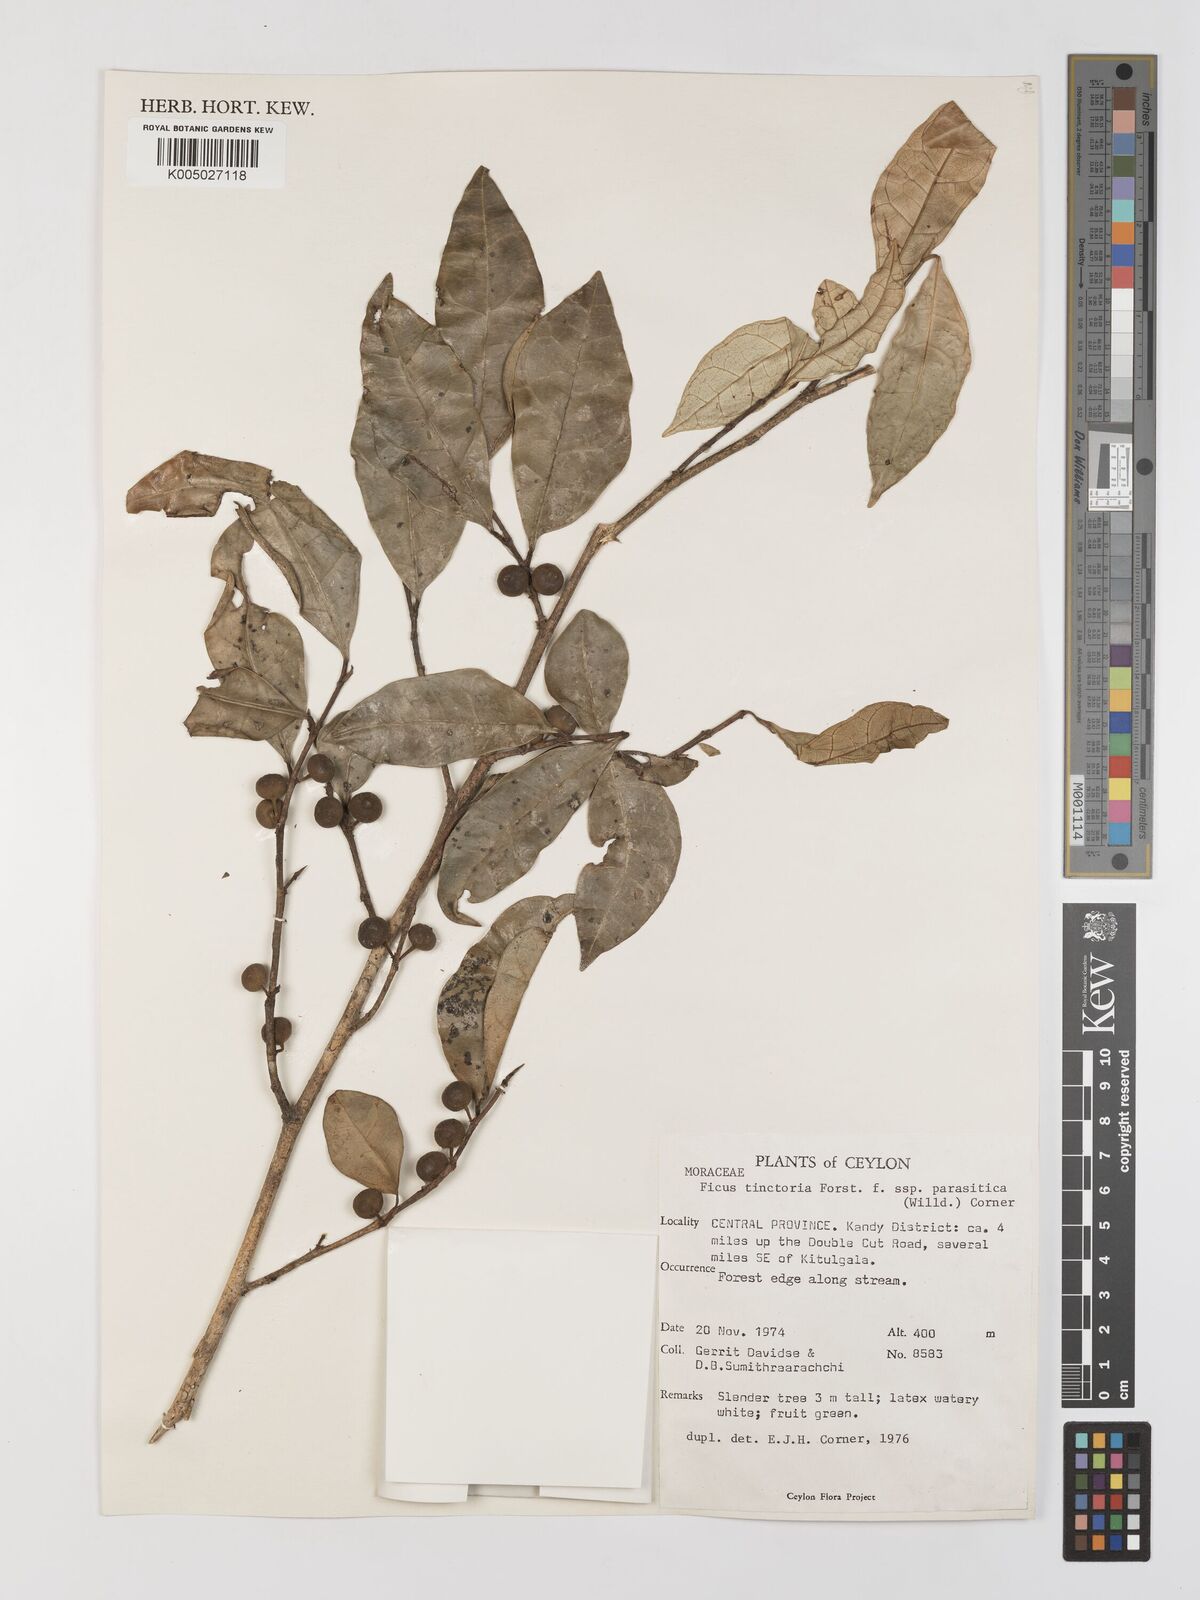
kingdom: Plantae
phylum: Tracheophyta
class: Magnoliopsida
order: Rosales
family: Moraceae
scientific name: Moraceae
